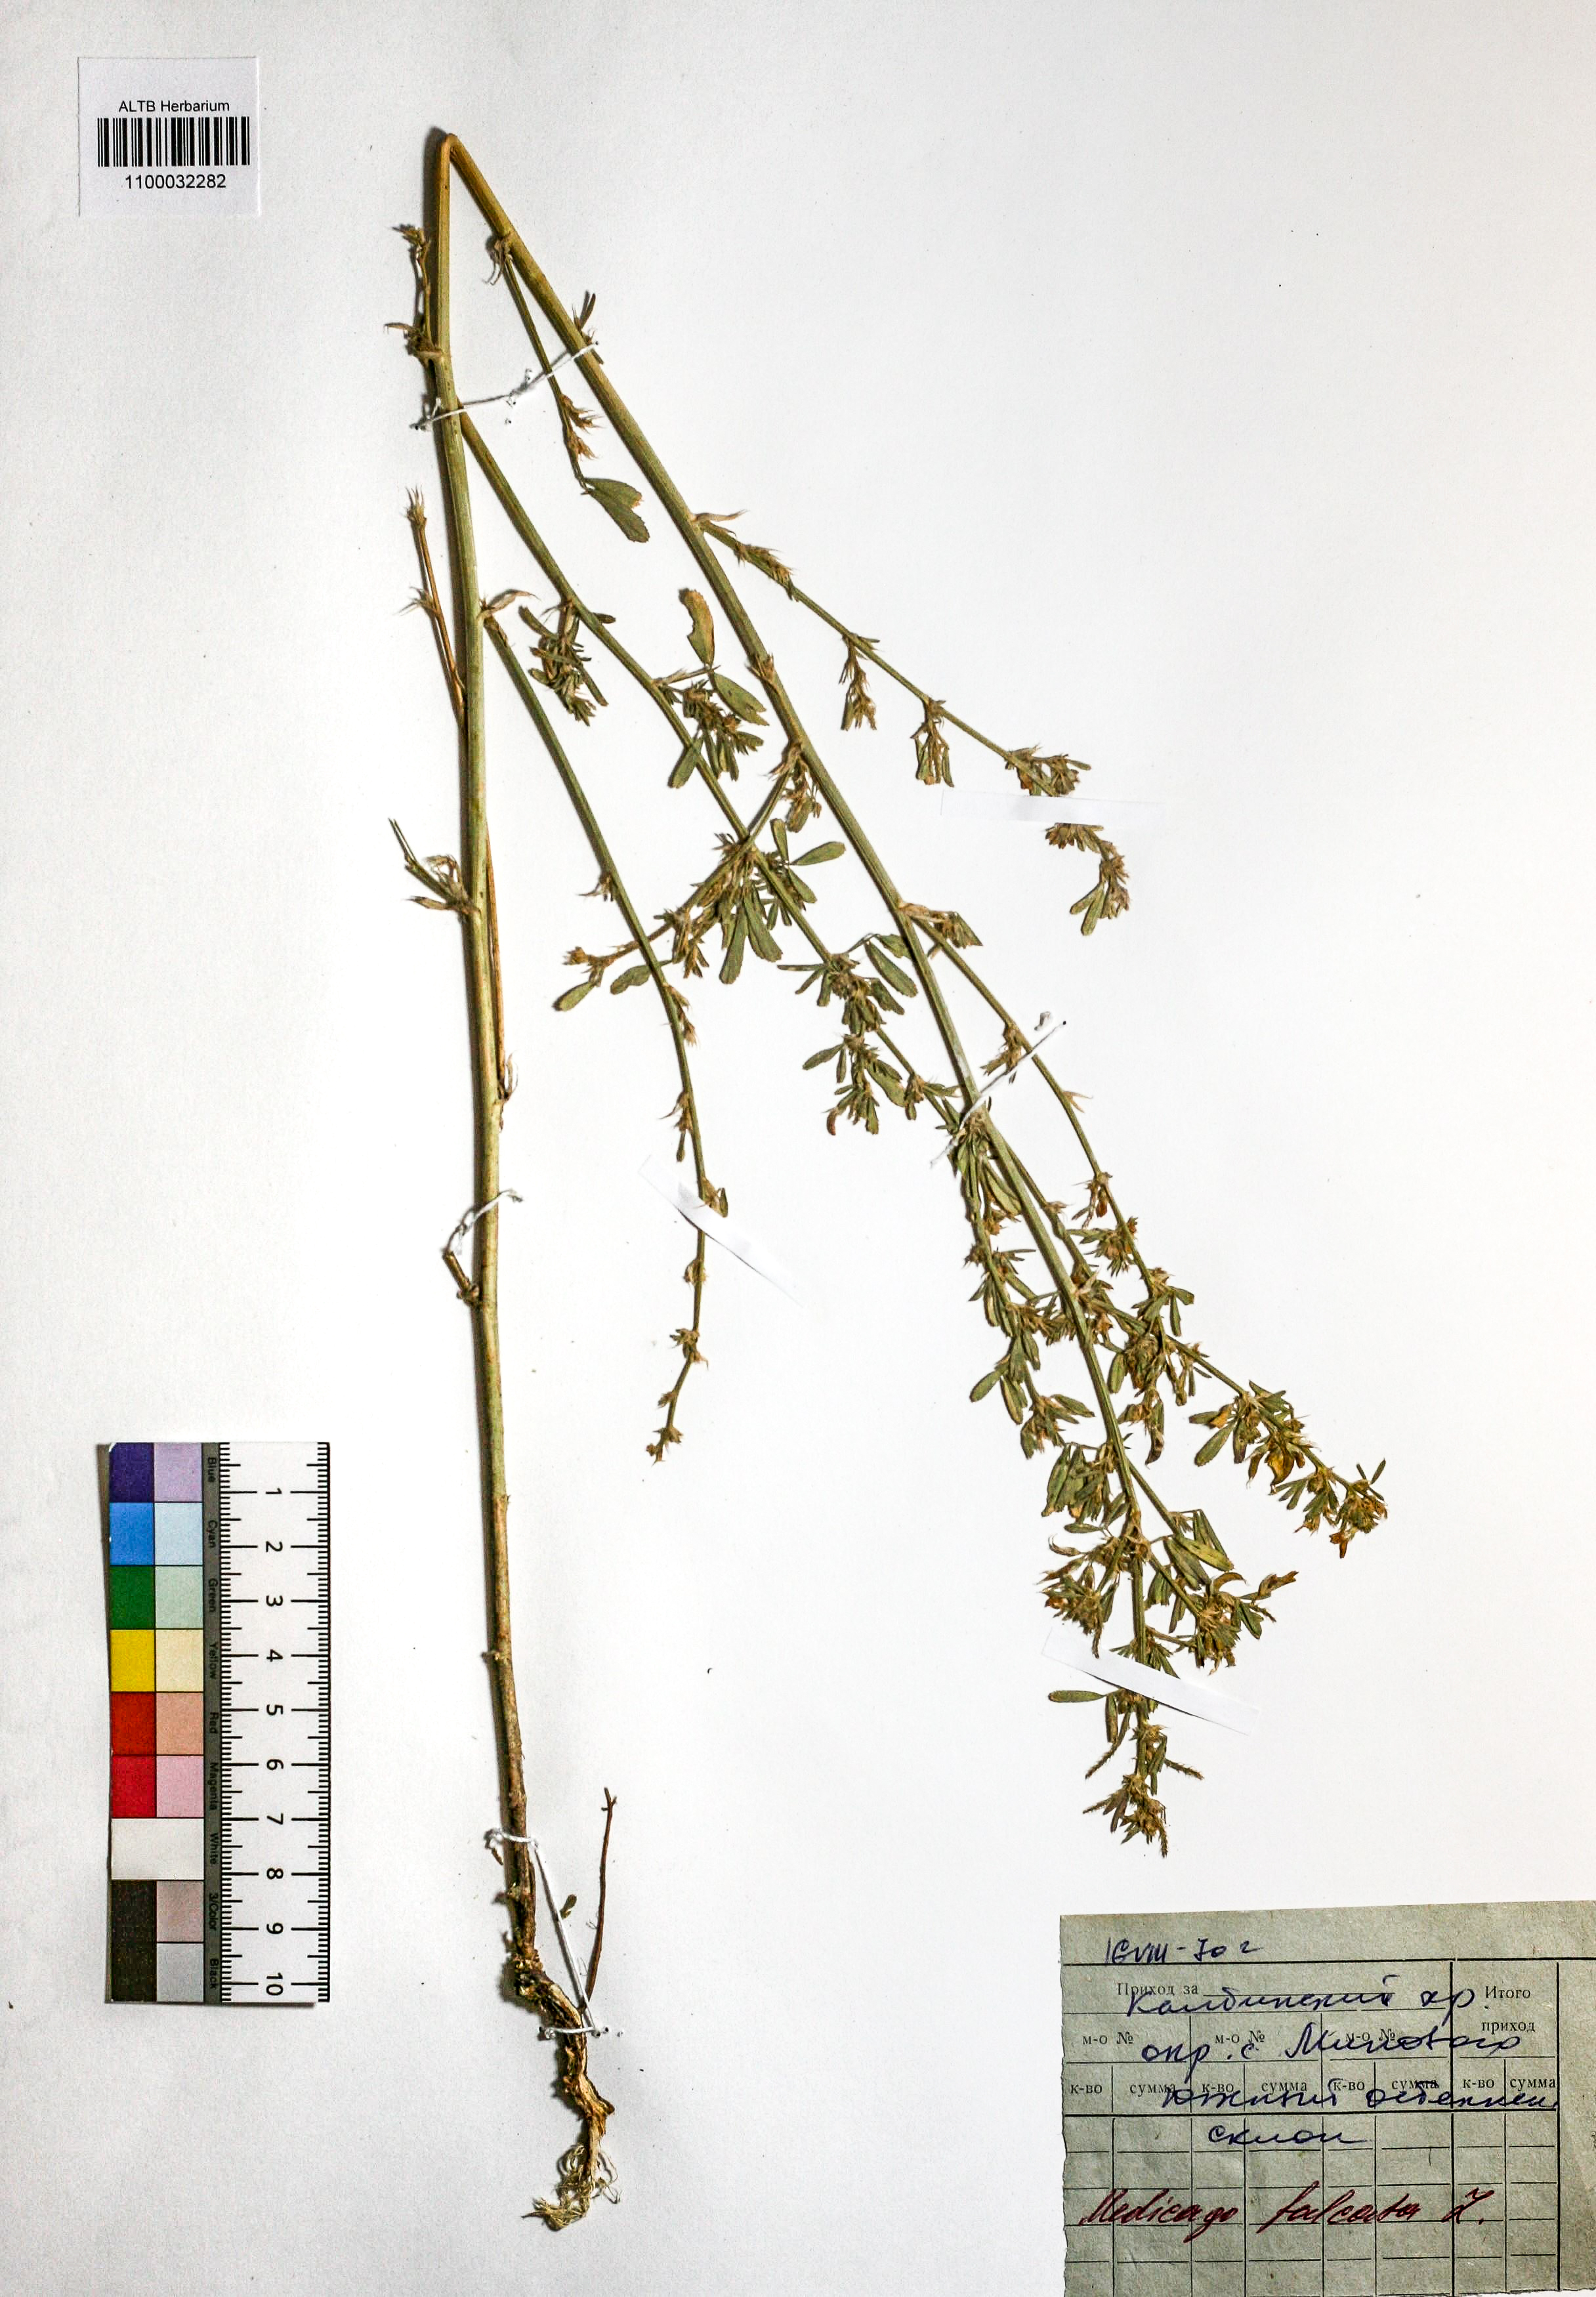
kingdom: Plantae
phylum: Tracheophyta
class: Magnoliopsida
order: Fabales
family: Fabaceae
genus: Medicago
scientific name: Medicago falcata
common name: Sickle medick
